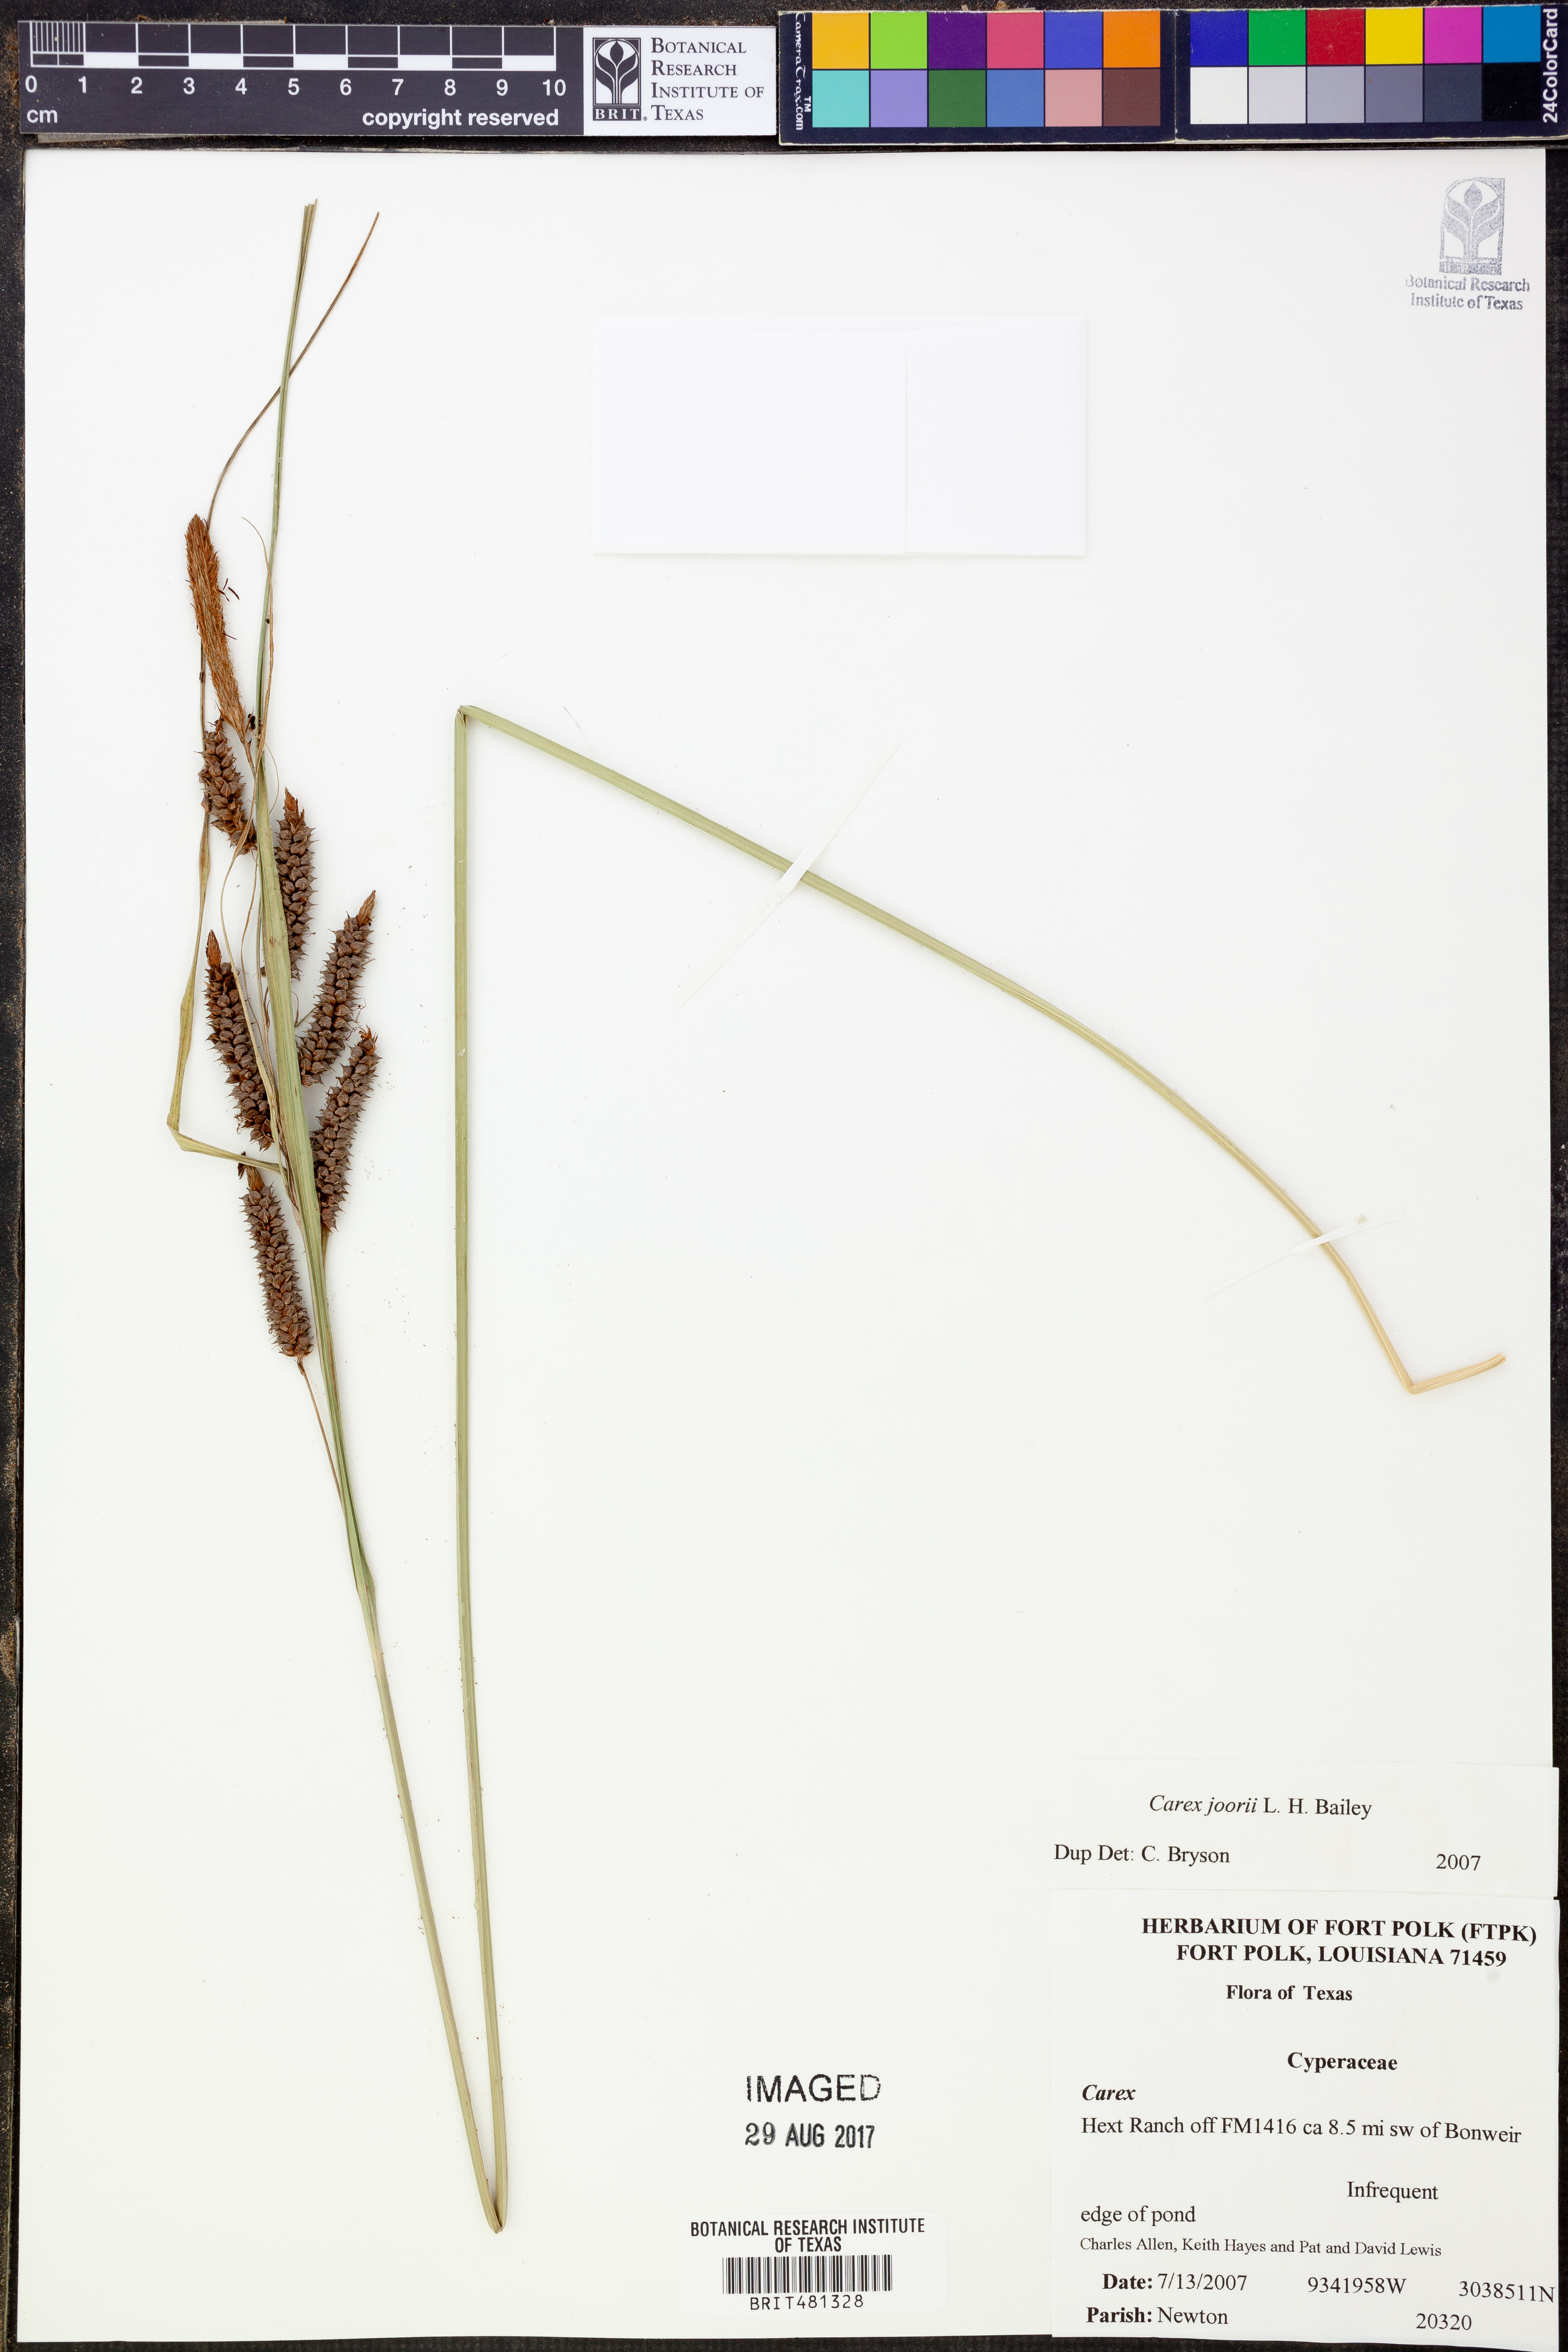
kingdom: Plantae
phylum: Tracheophyta
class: Liliopsida
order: Poales
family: Cyperaceae
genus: Carex
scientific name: Carex joorii
